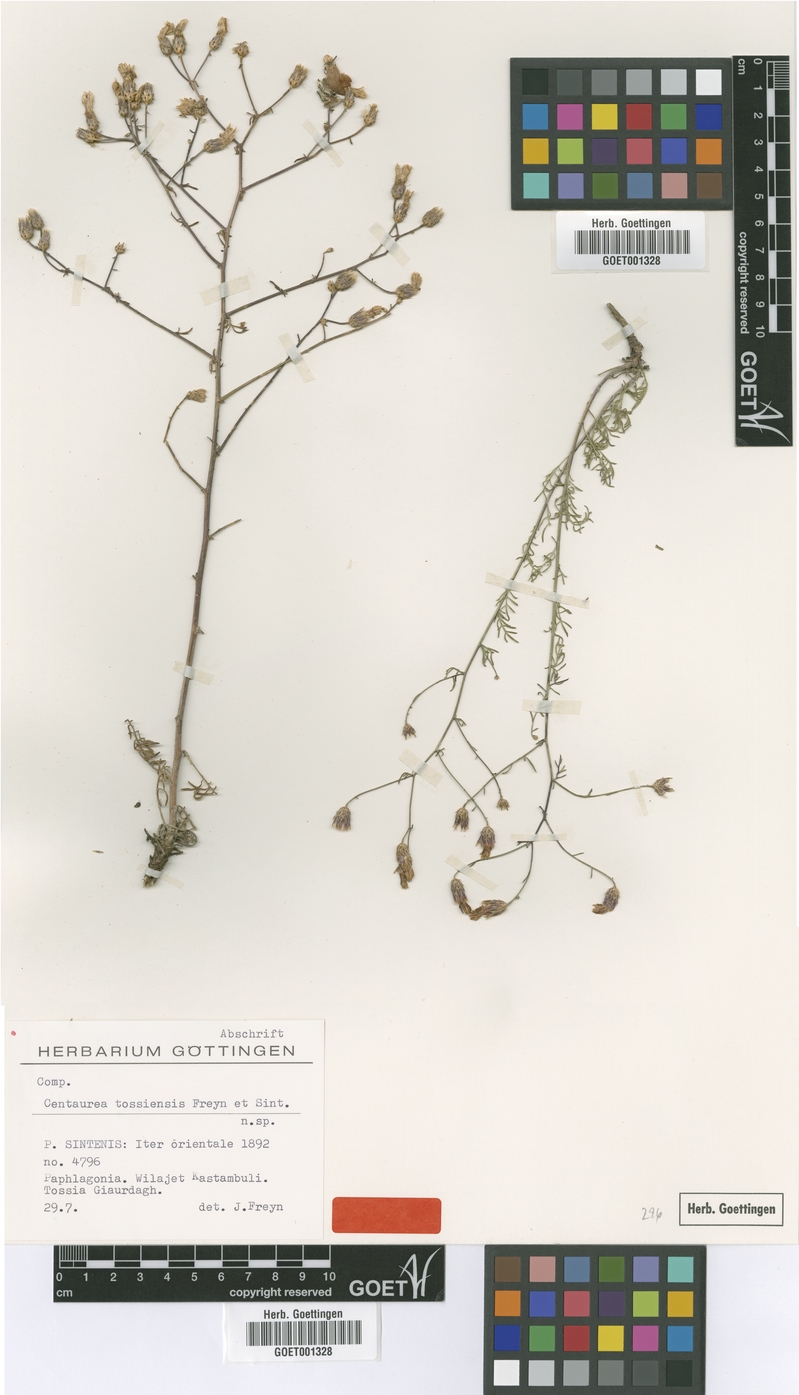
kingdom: Plantae
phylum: Tracheophyta
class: Magnoliopsida
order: Asterales
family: Asteraceae
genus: Centaurea
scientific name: Centaurea tossiensis
